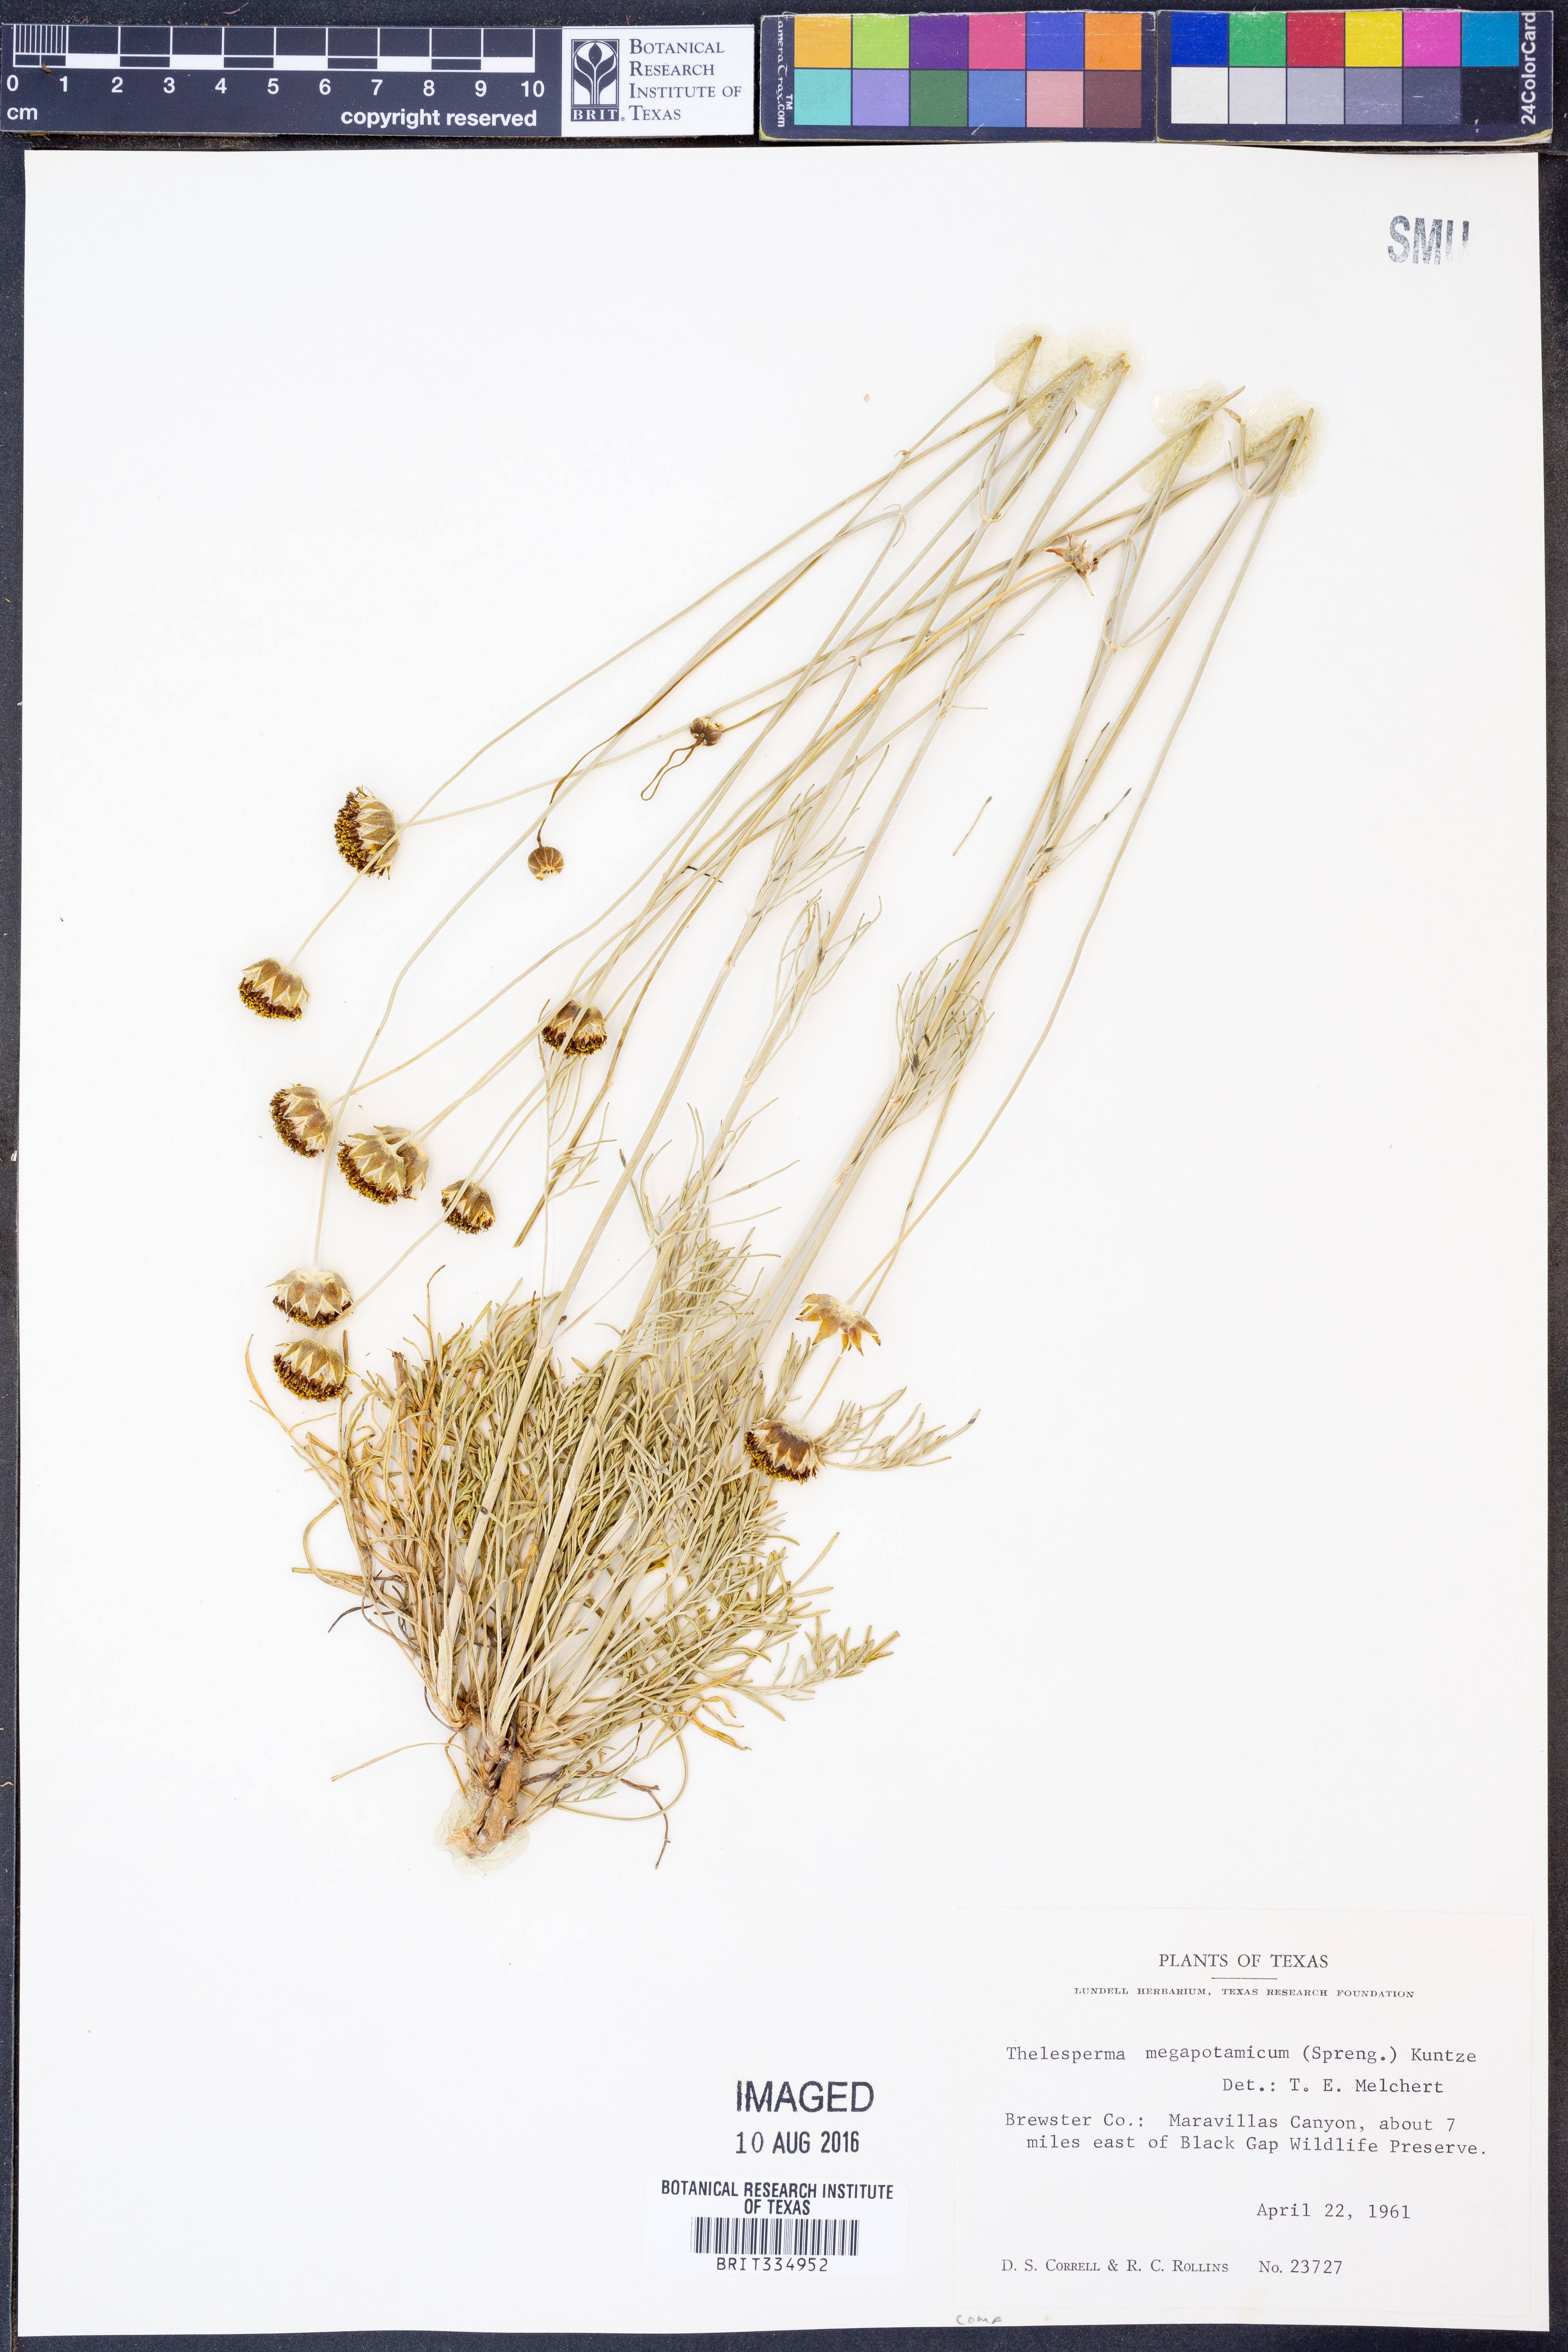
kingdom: Plantae
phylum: Tracheophyta
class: Magnoliopsida
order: Asterales
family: Asteraceae
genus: Thelesperma
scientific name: Thelesperma megapotamicum
